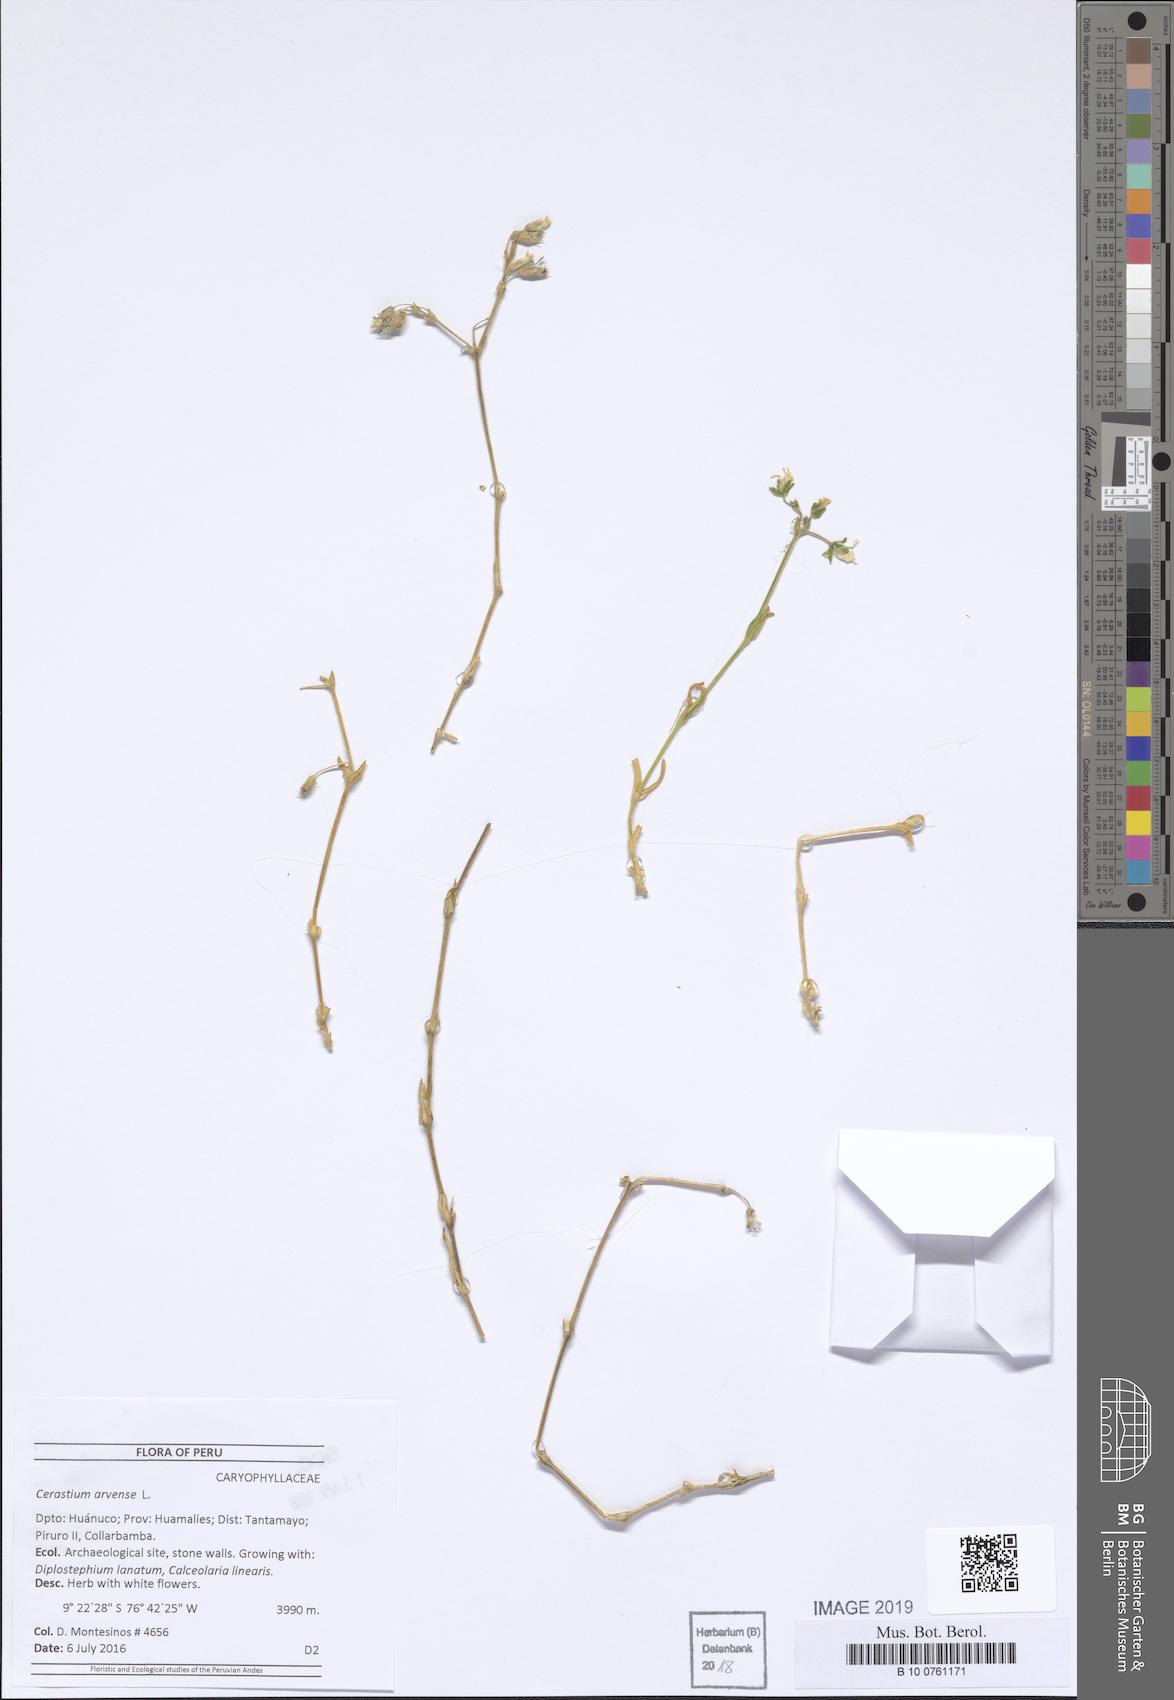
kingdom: Plantae
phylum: Tracheophyta
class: Magnoliopsida
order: Caryophyllales
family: Caryophyllaceae
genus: Cerastium
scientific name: Cerastium arvense
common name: Field mouse-ear
